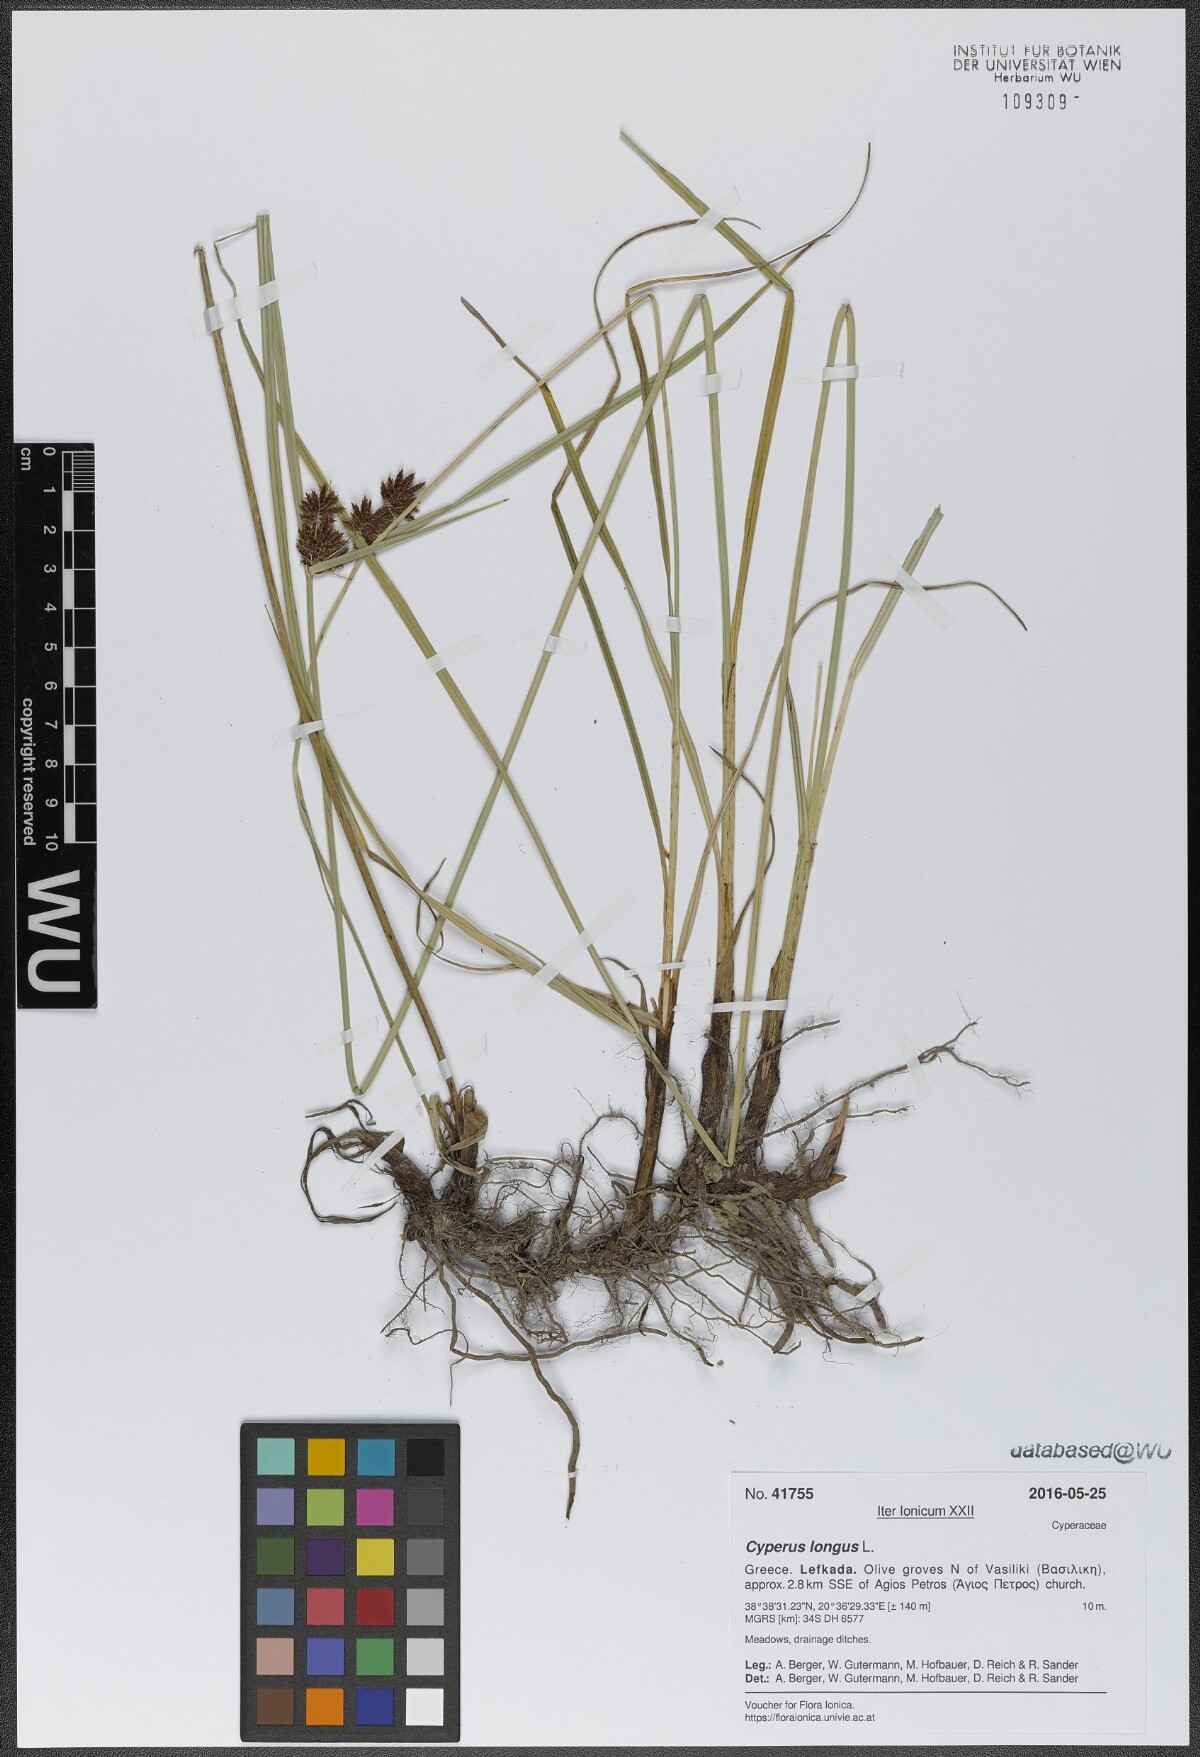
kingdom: Plantae
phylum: Tracheophyta
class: Liliopsida
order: Poales
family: Cyperaceae
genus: Cyperus
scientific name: Cyperus longus
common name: Galingale
